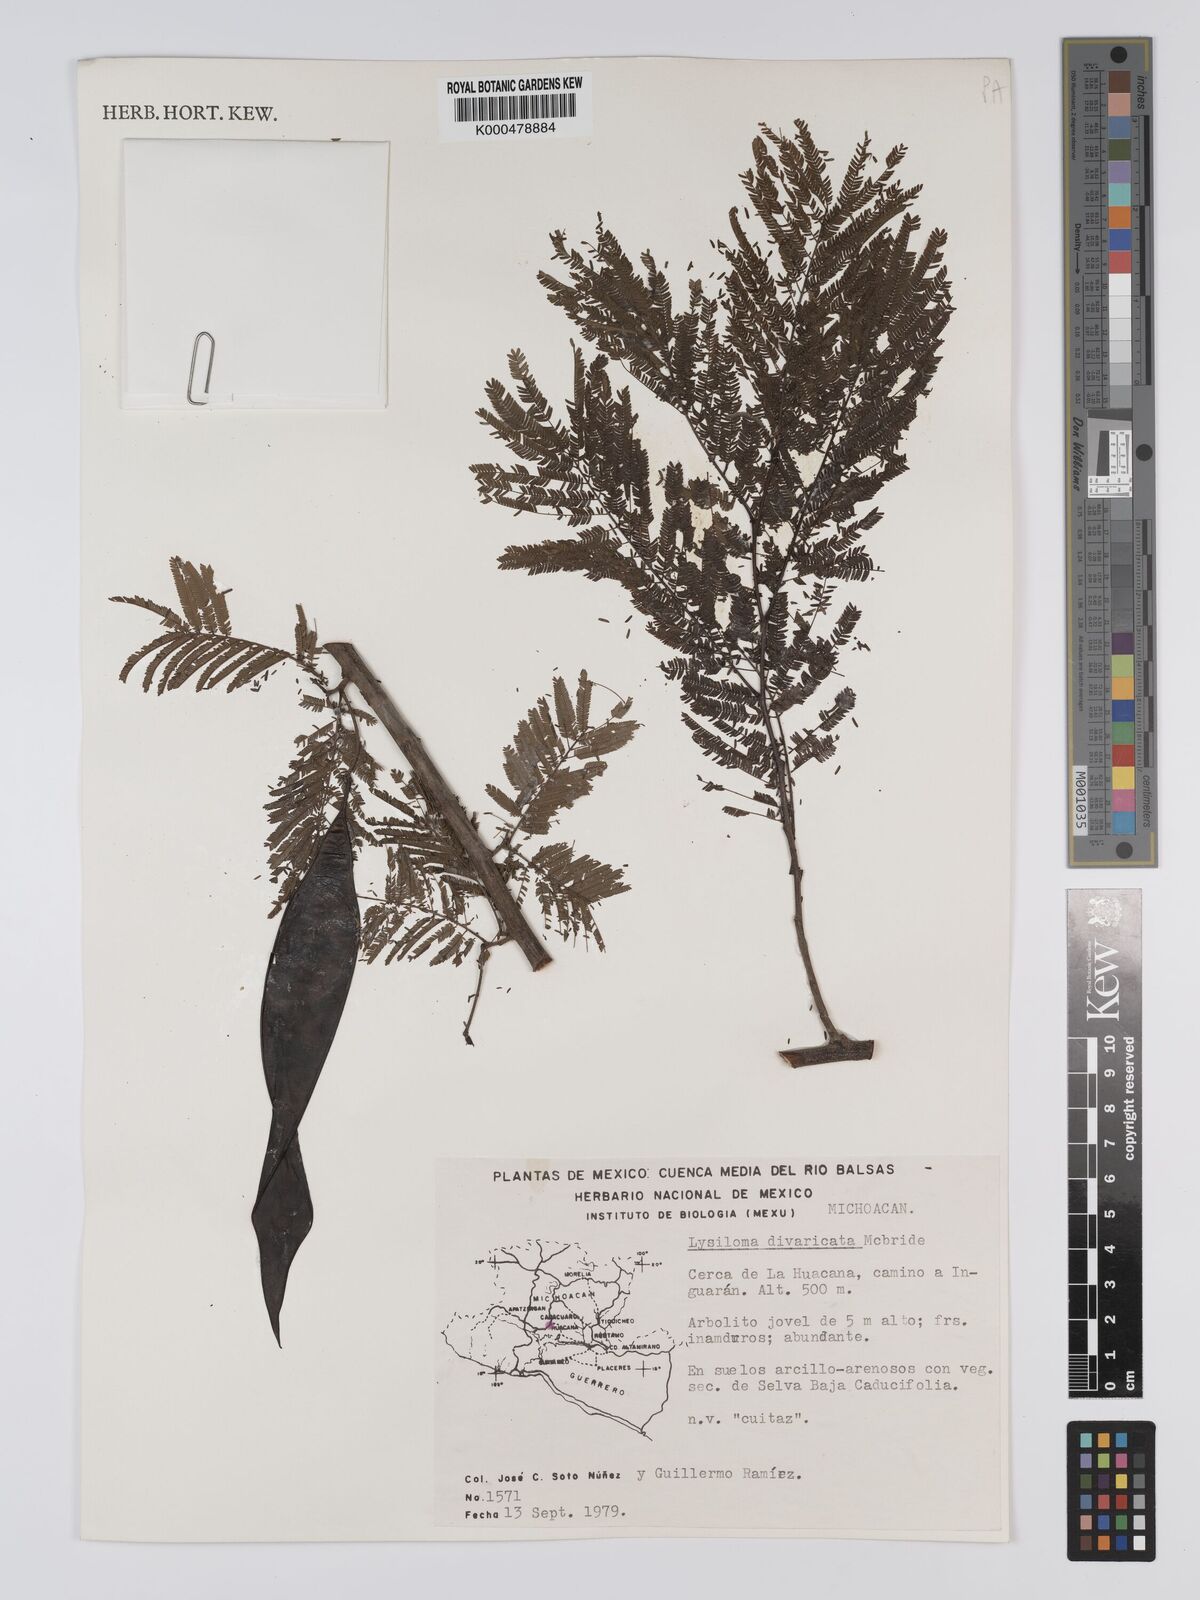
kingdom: Plantae
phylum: Tracheophyta
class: Magnoliopsida
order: Fabales
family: Fabaceae
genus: Lysiloma
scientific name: Lysiloma divaricatum
